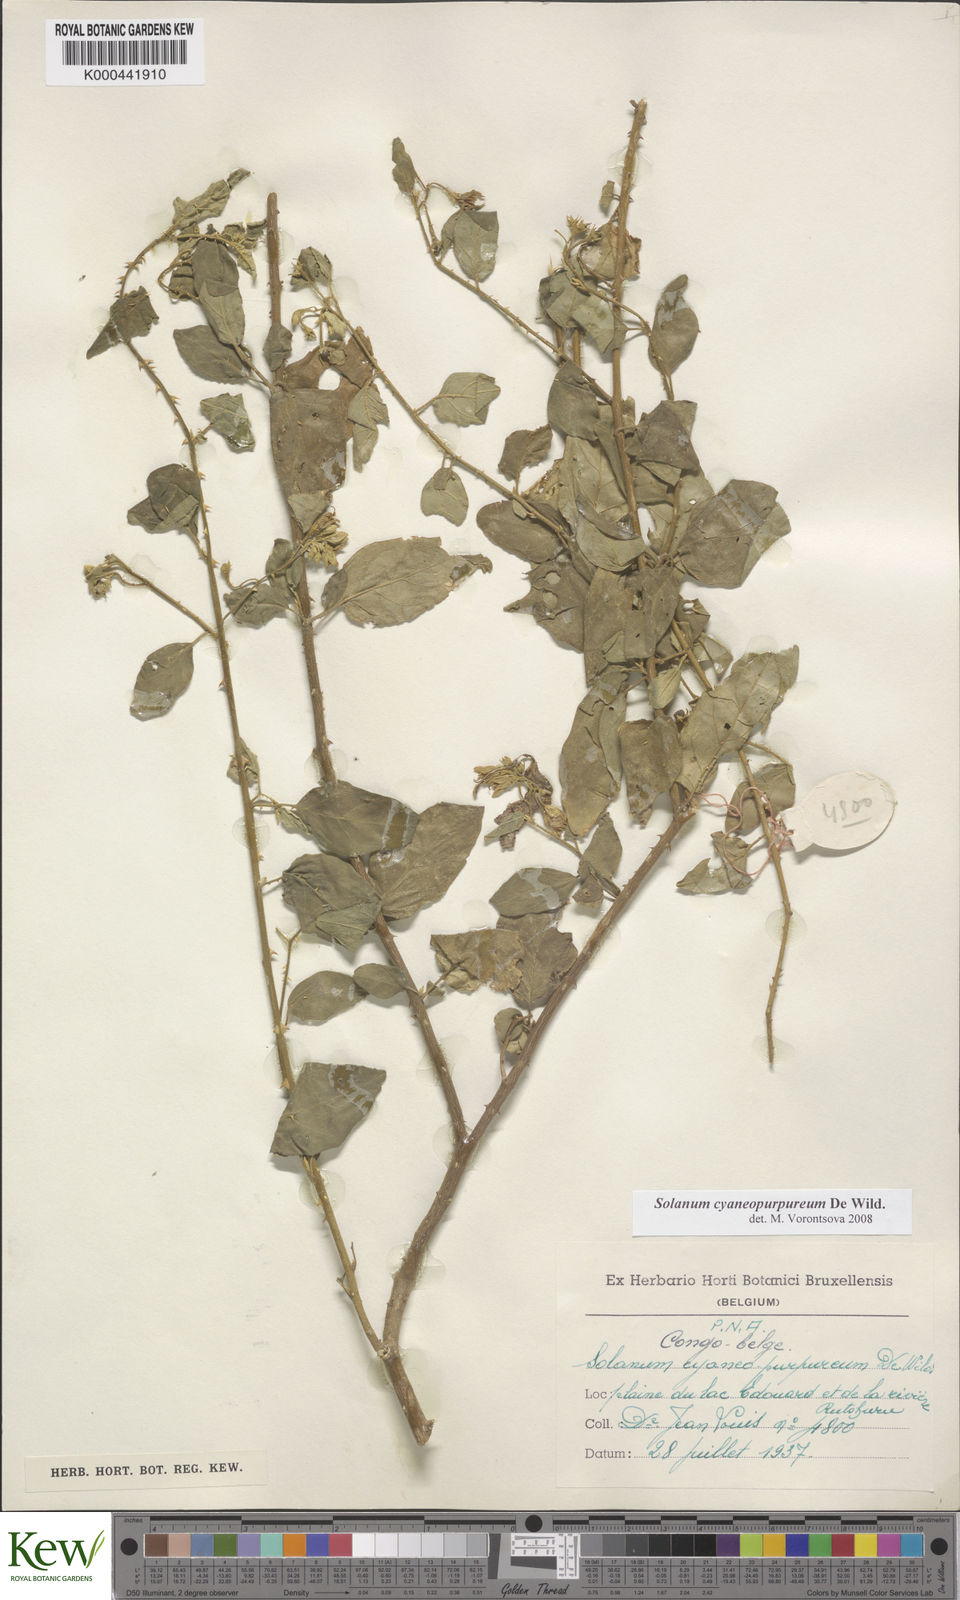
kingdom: Plantae
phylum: Tracheophyta
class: Magnoliopsida
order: Solanales
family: Solanaceae
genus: Solanum
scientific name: Solanum cyaneopurpureum
